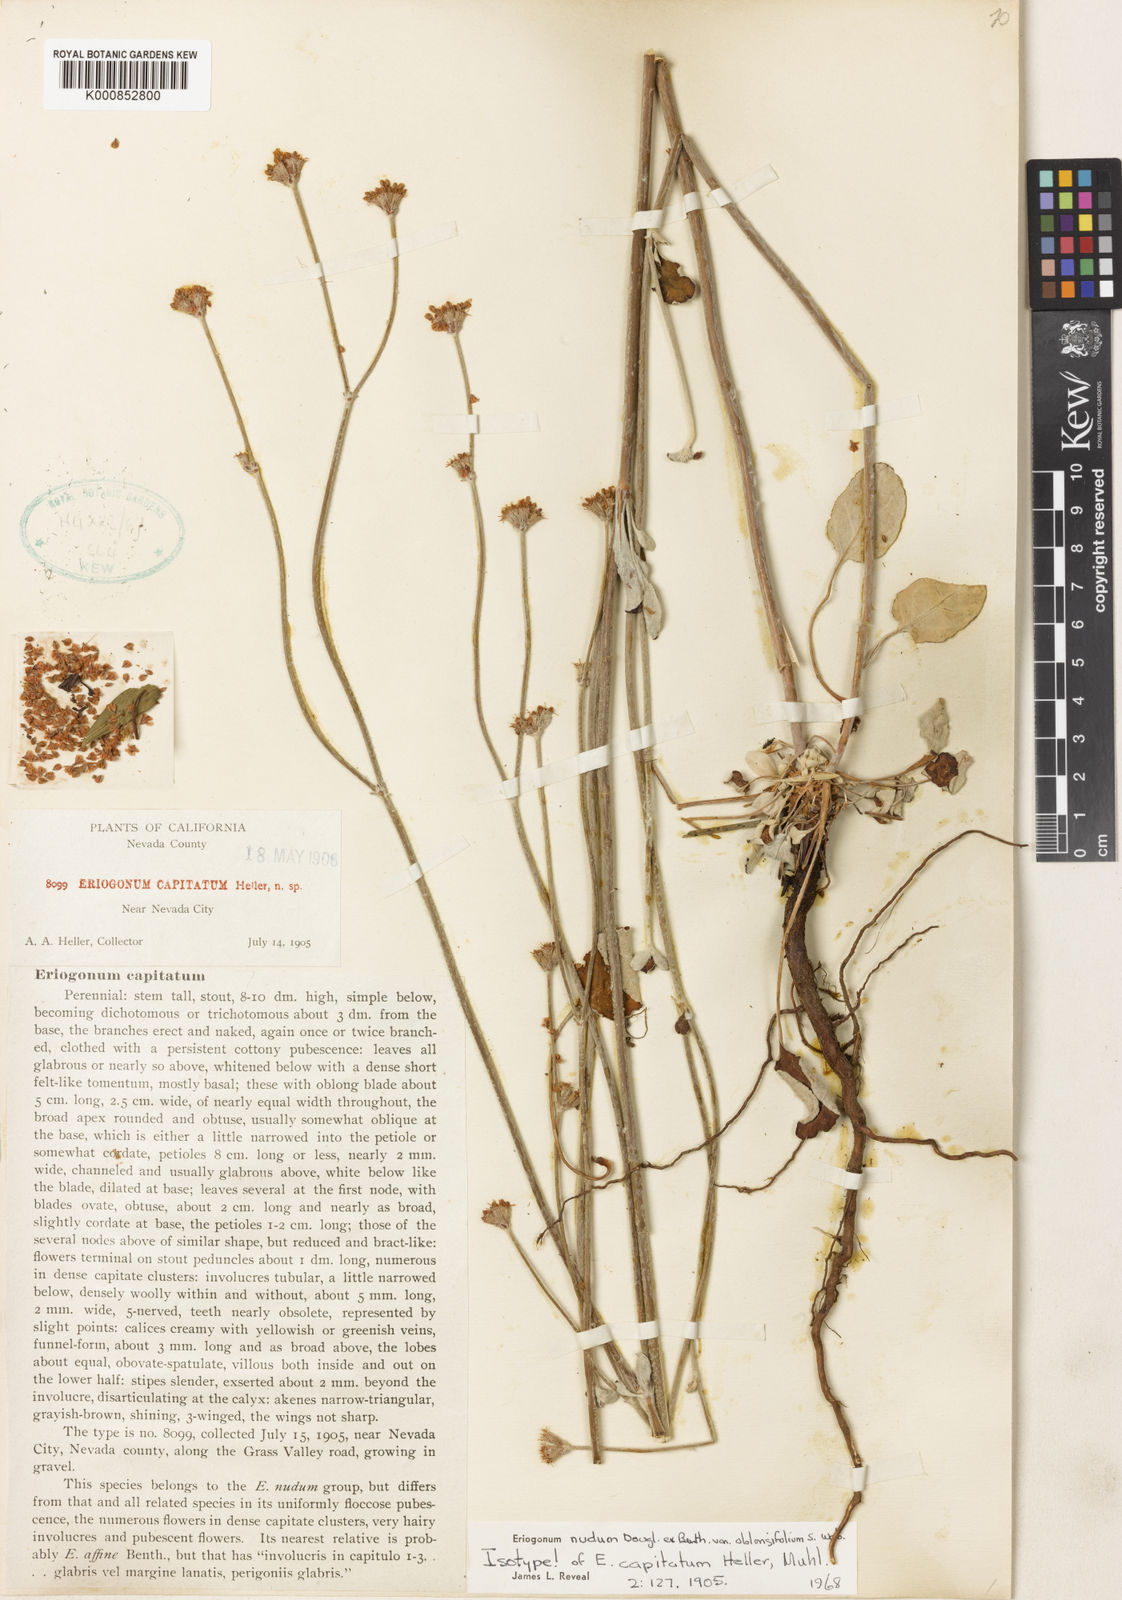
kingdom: Plantae
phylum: Tracheophyta
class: Magnoliopsida
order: Caryophyllales
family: Polygonaceae
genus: Eriogonum
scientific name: Eriogonum nudum
